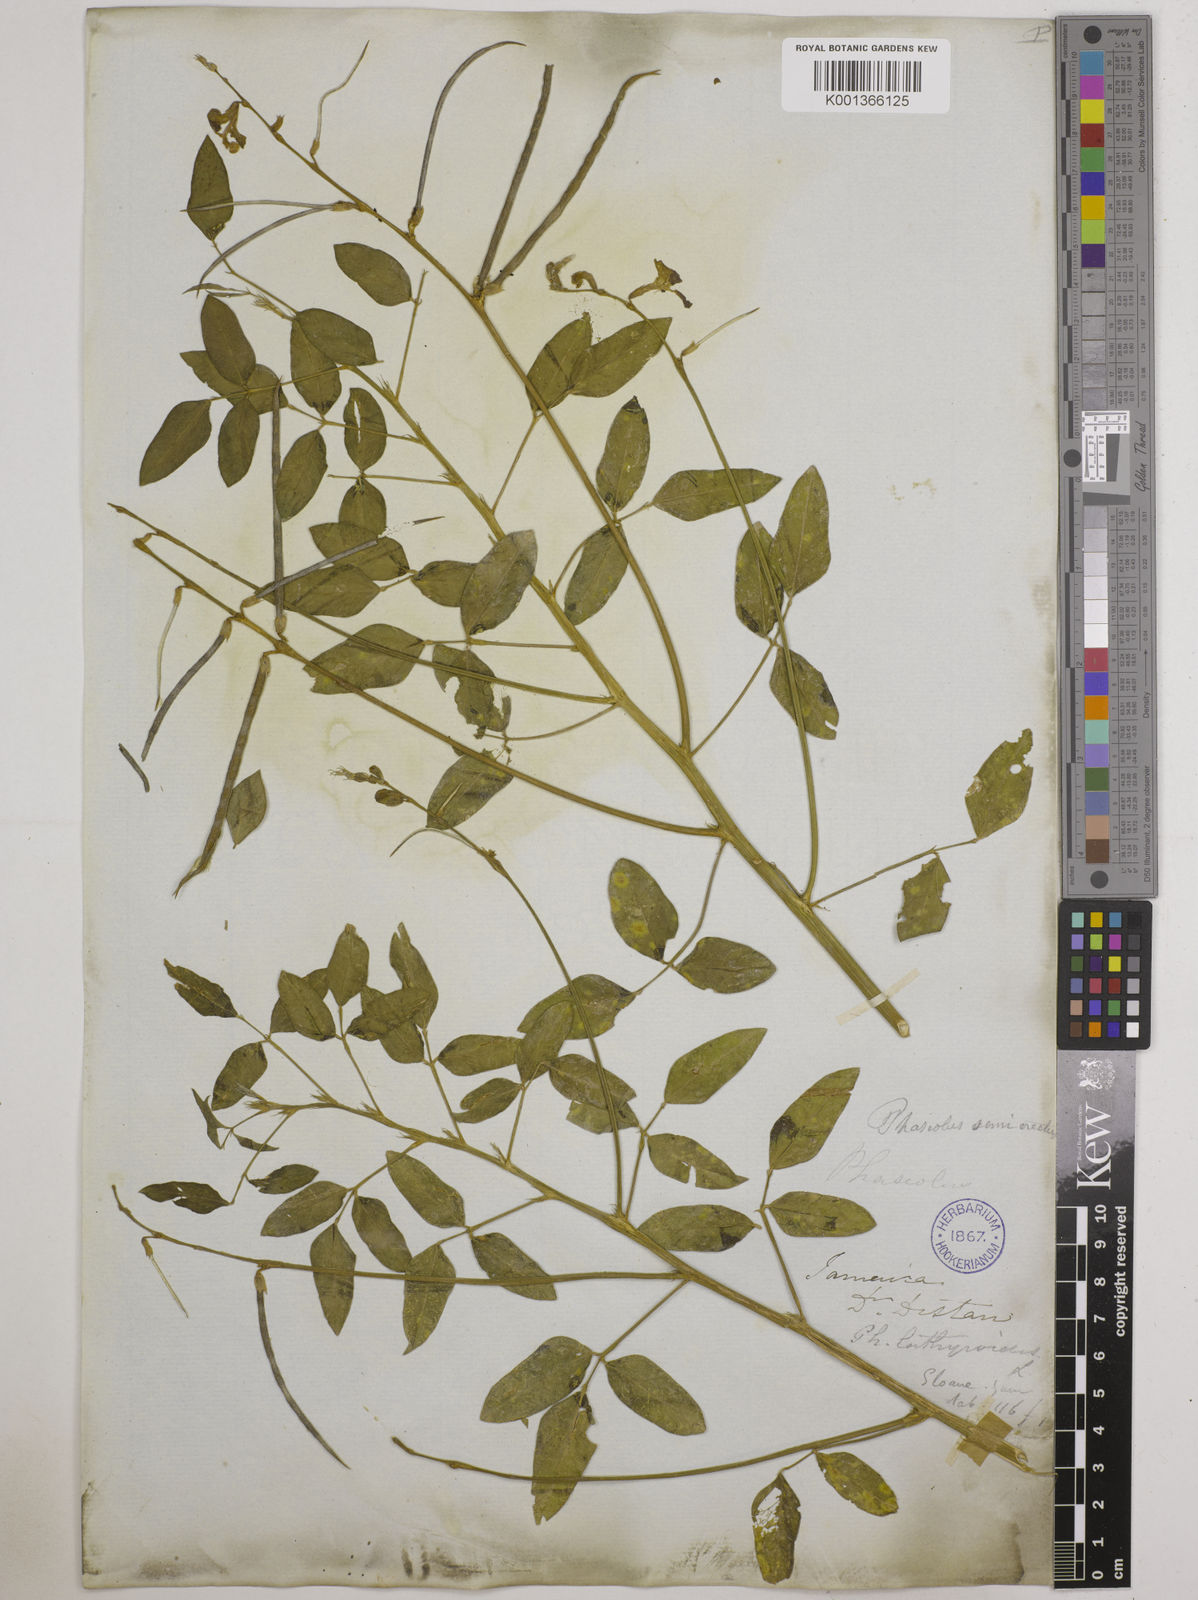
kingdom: Plantae
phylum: Tracheophyta
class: Magnoliopsida
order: Fabales
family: Fabaceae
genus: Macroptilium
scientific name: Macroptilium lathyroides
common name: Wild bushbean
